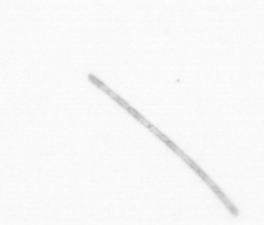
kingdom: Chromista
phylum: Ochrophyta
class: Bacillariophyceae
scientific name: Bacillariophyceae
